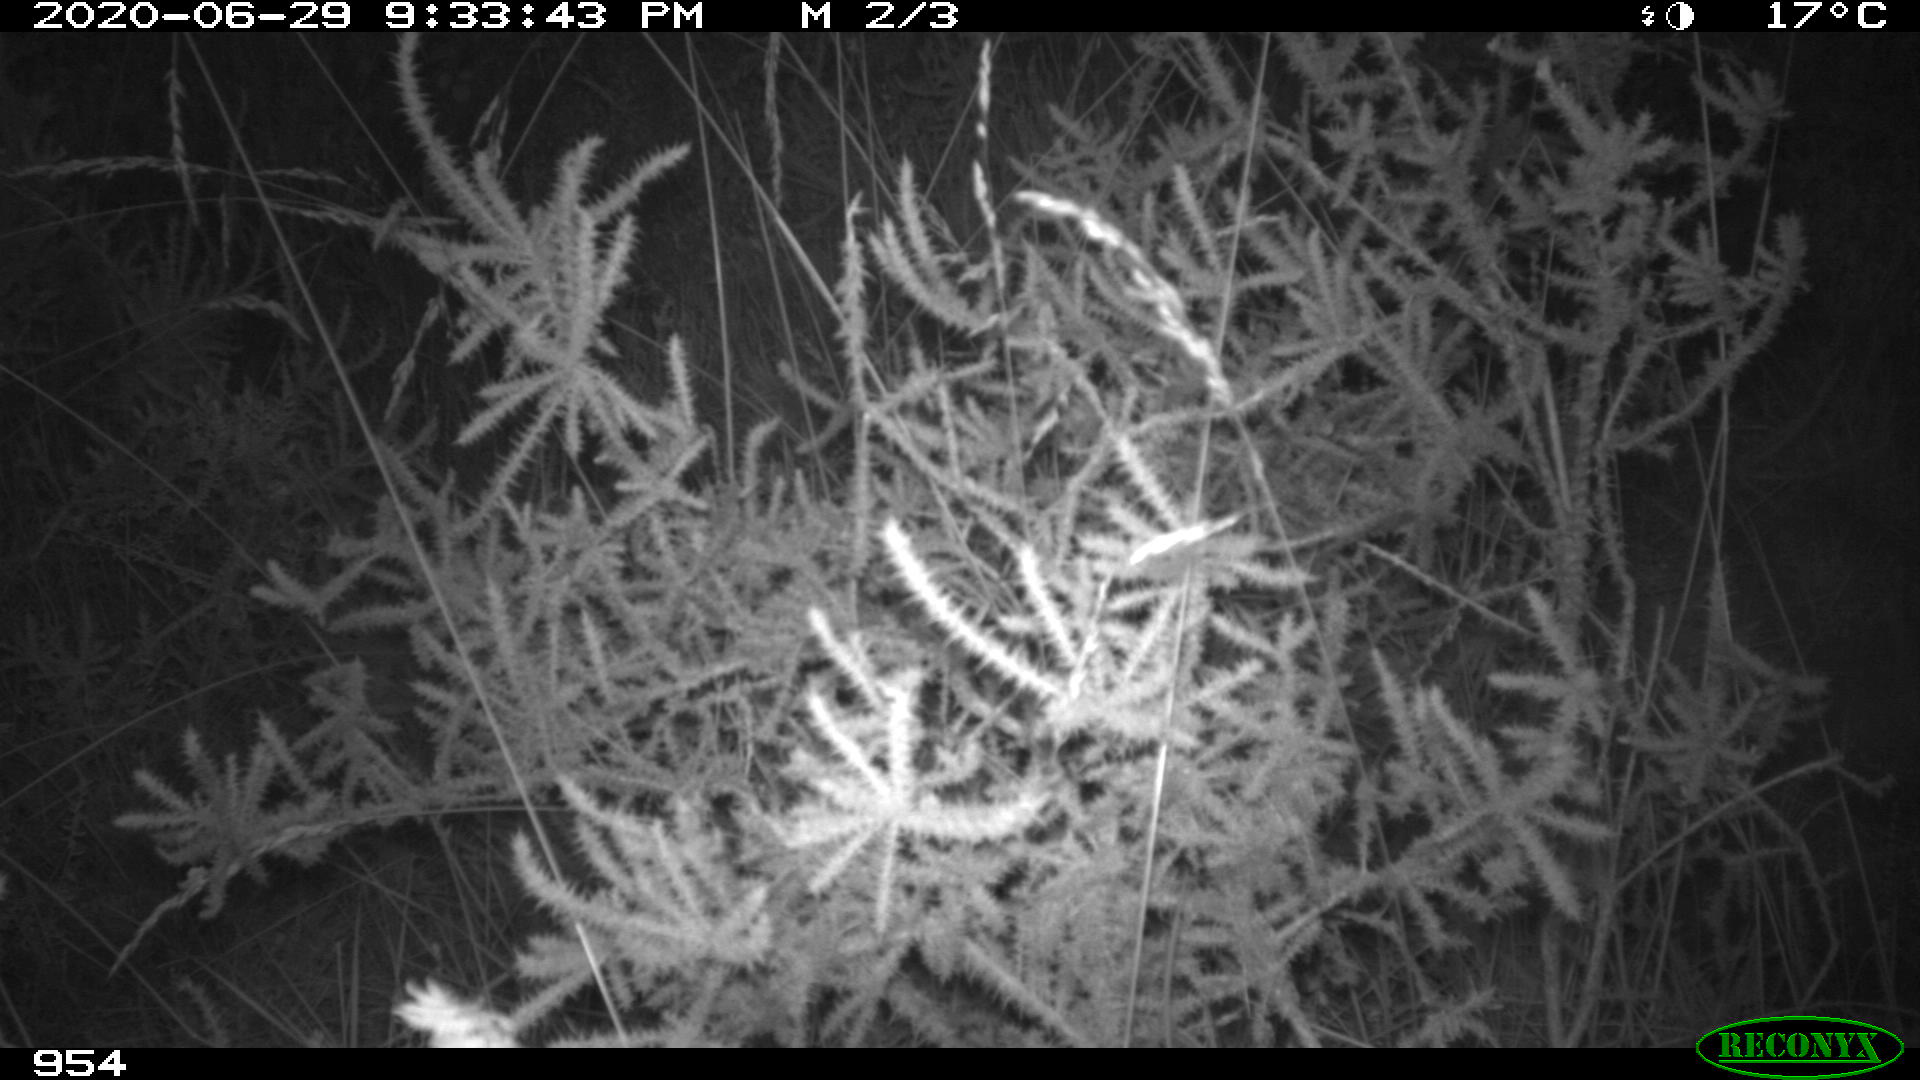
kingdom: Animalia
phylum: Chordata
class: Mammalia
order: Artiodactyla
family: Suidae
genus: Sus
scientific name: Sus scrofa
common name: Wild boar
